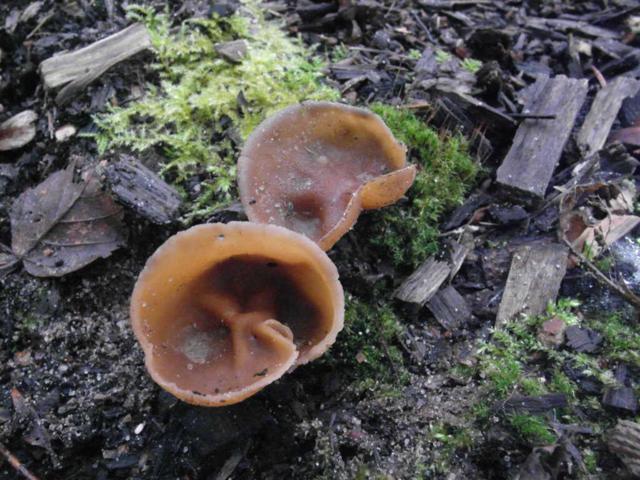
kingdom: Fungi
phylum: Ascomycota
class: Pezizomycetes
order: Pezizales
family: Pezizaceae
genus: Peziza
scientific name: Peziza varia
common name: Ved-bægersvamp
